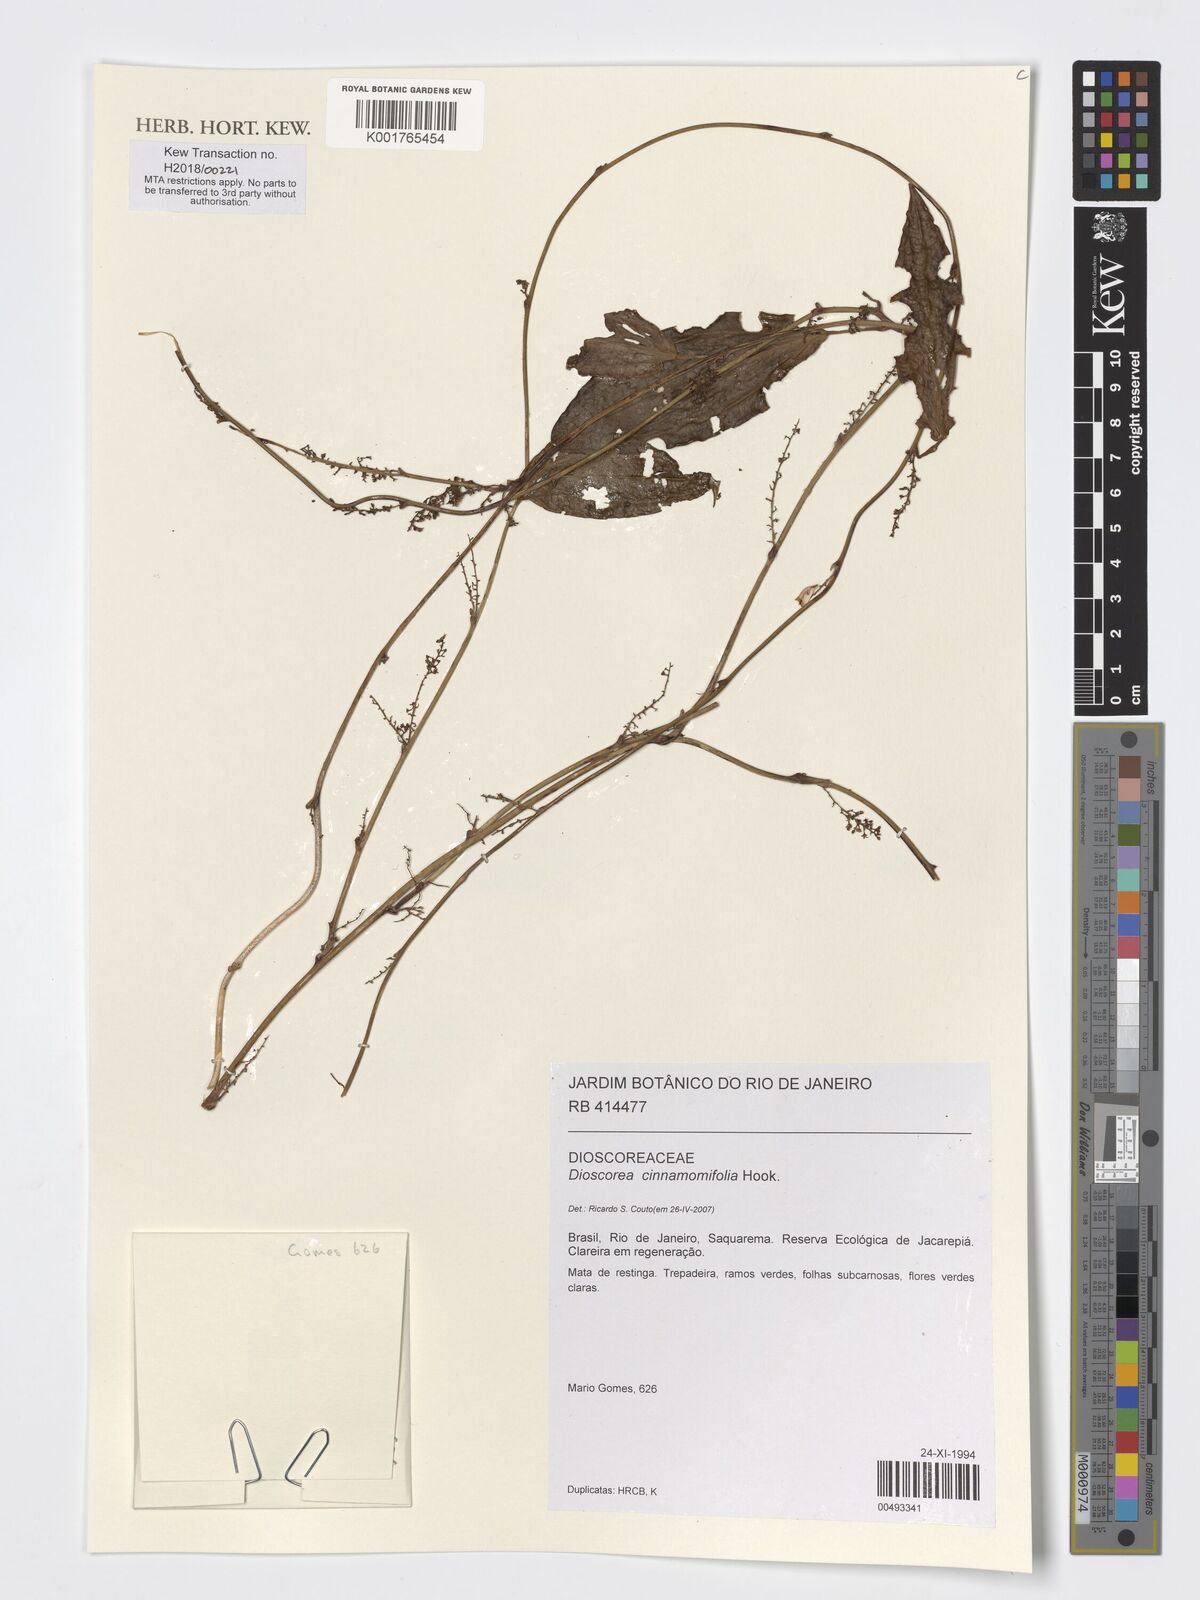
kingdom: Plantae
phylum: Tracheophyta
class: Liliopsida
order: Dioscoreales
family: Dioscoreaceae
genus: Dioscorea
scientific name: Dioscorea cinnamomifolia
